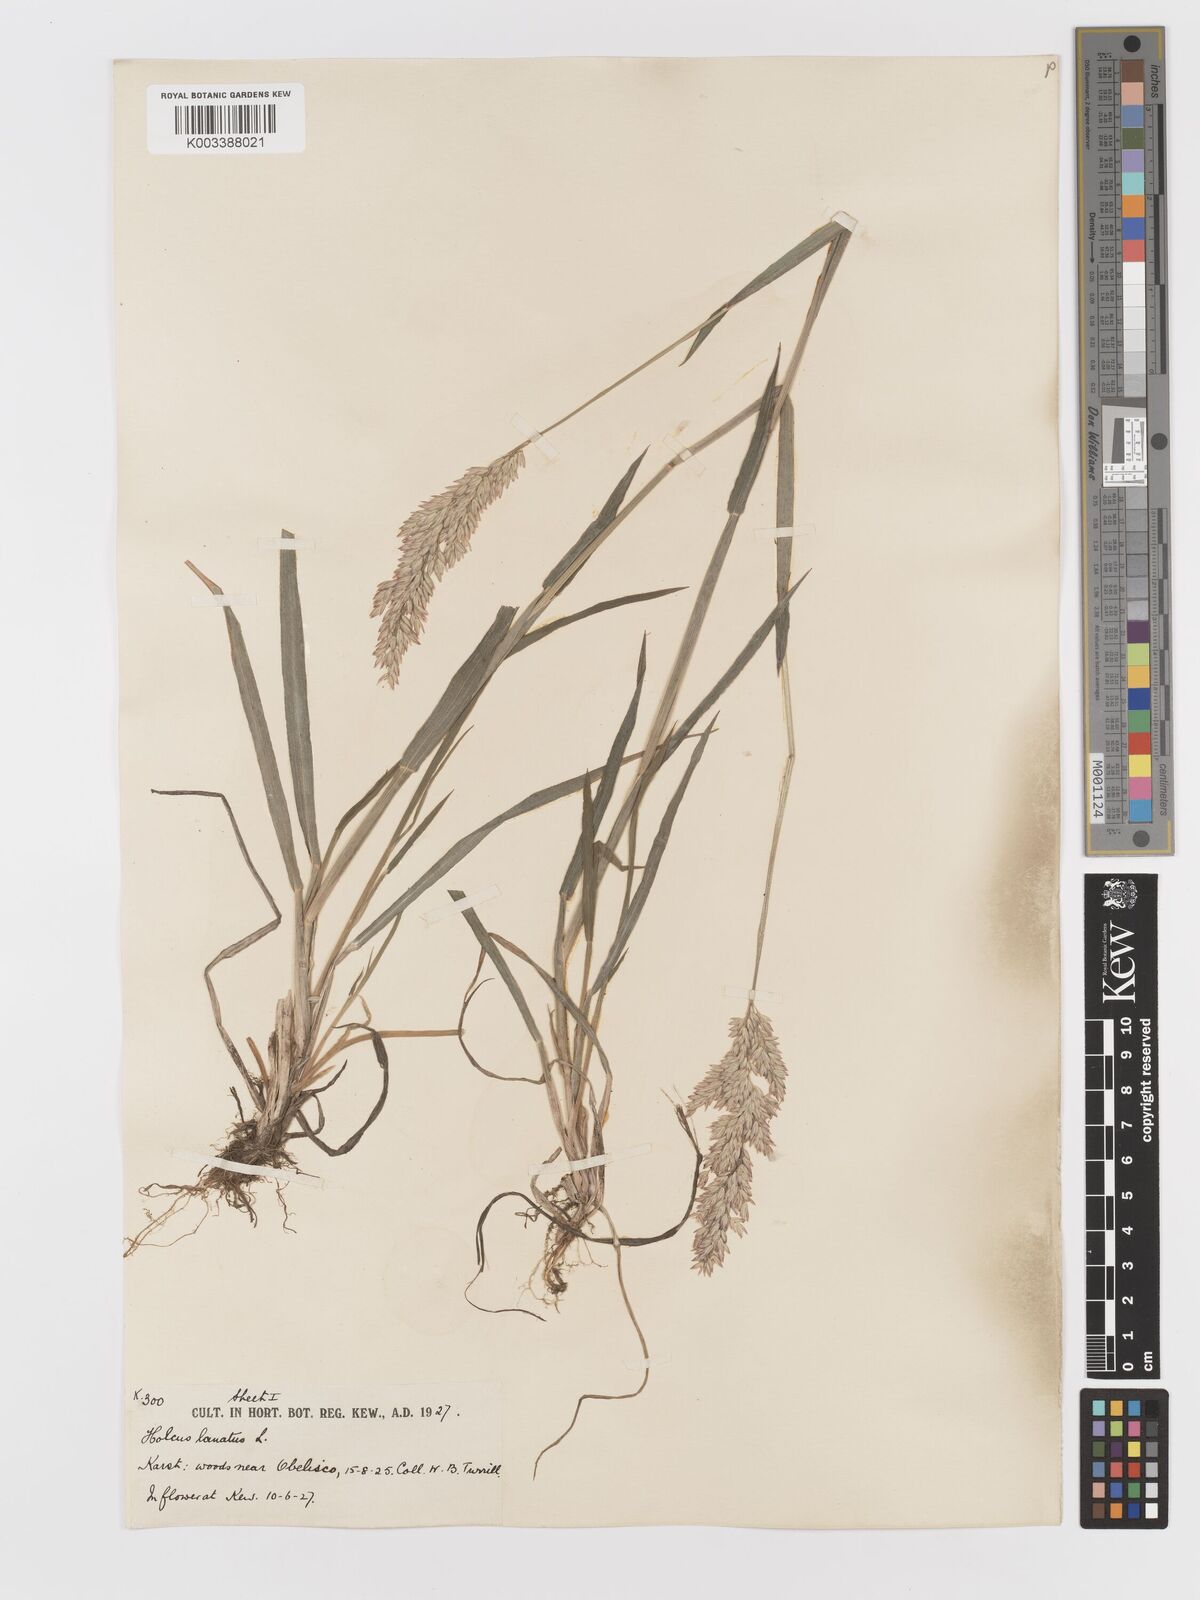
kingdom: Plantae
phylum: Tracheophyta
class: Liliopsida
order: Poales
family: Poaceae
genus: Holcus
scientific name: Holcus lanatus
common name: Yorkshire-fog
